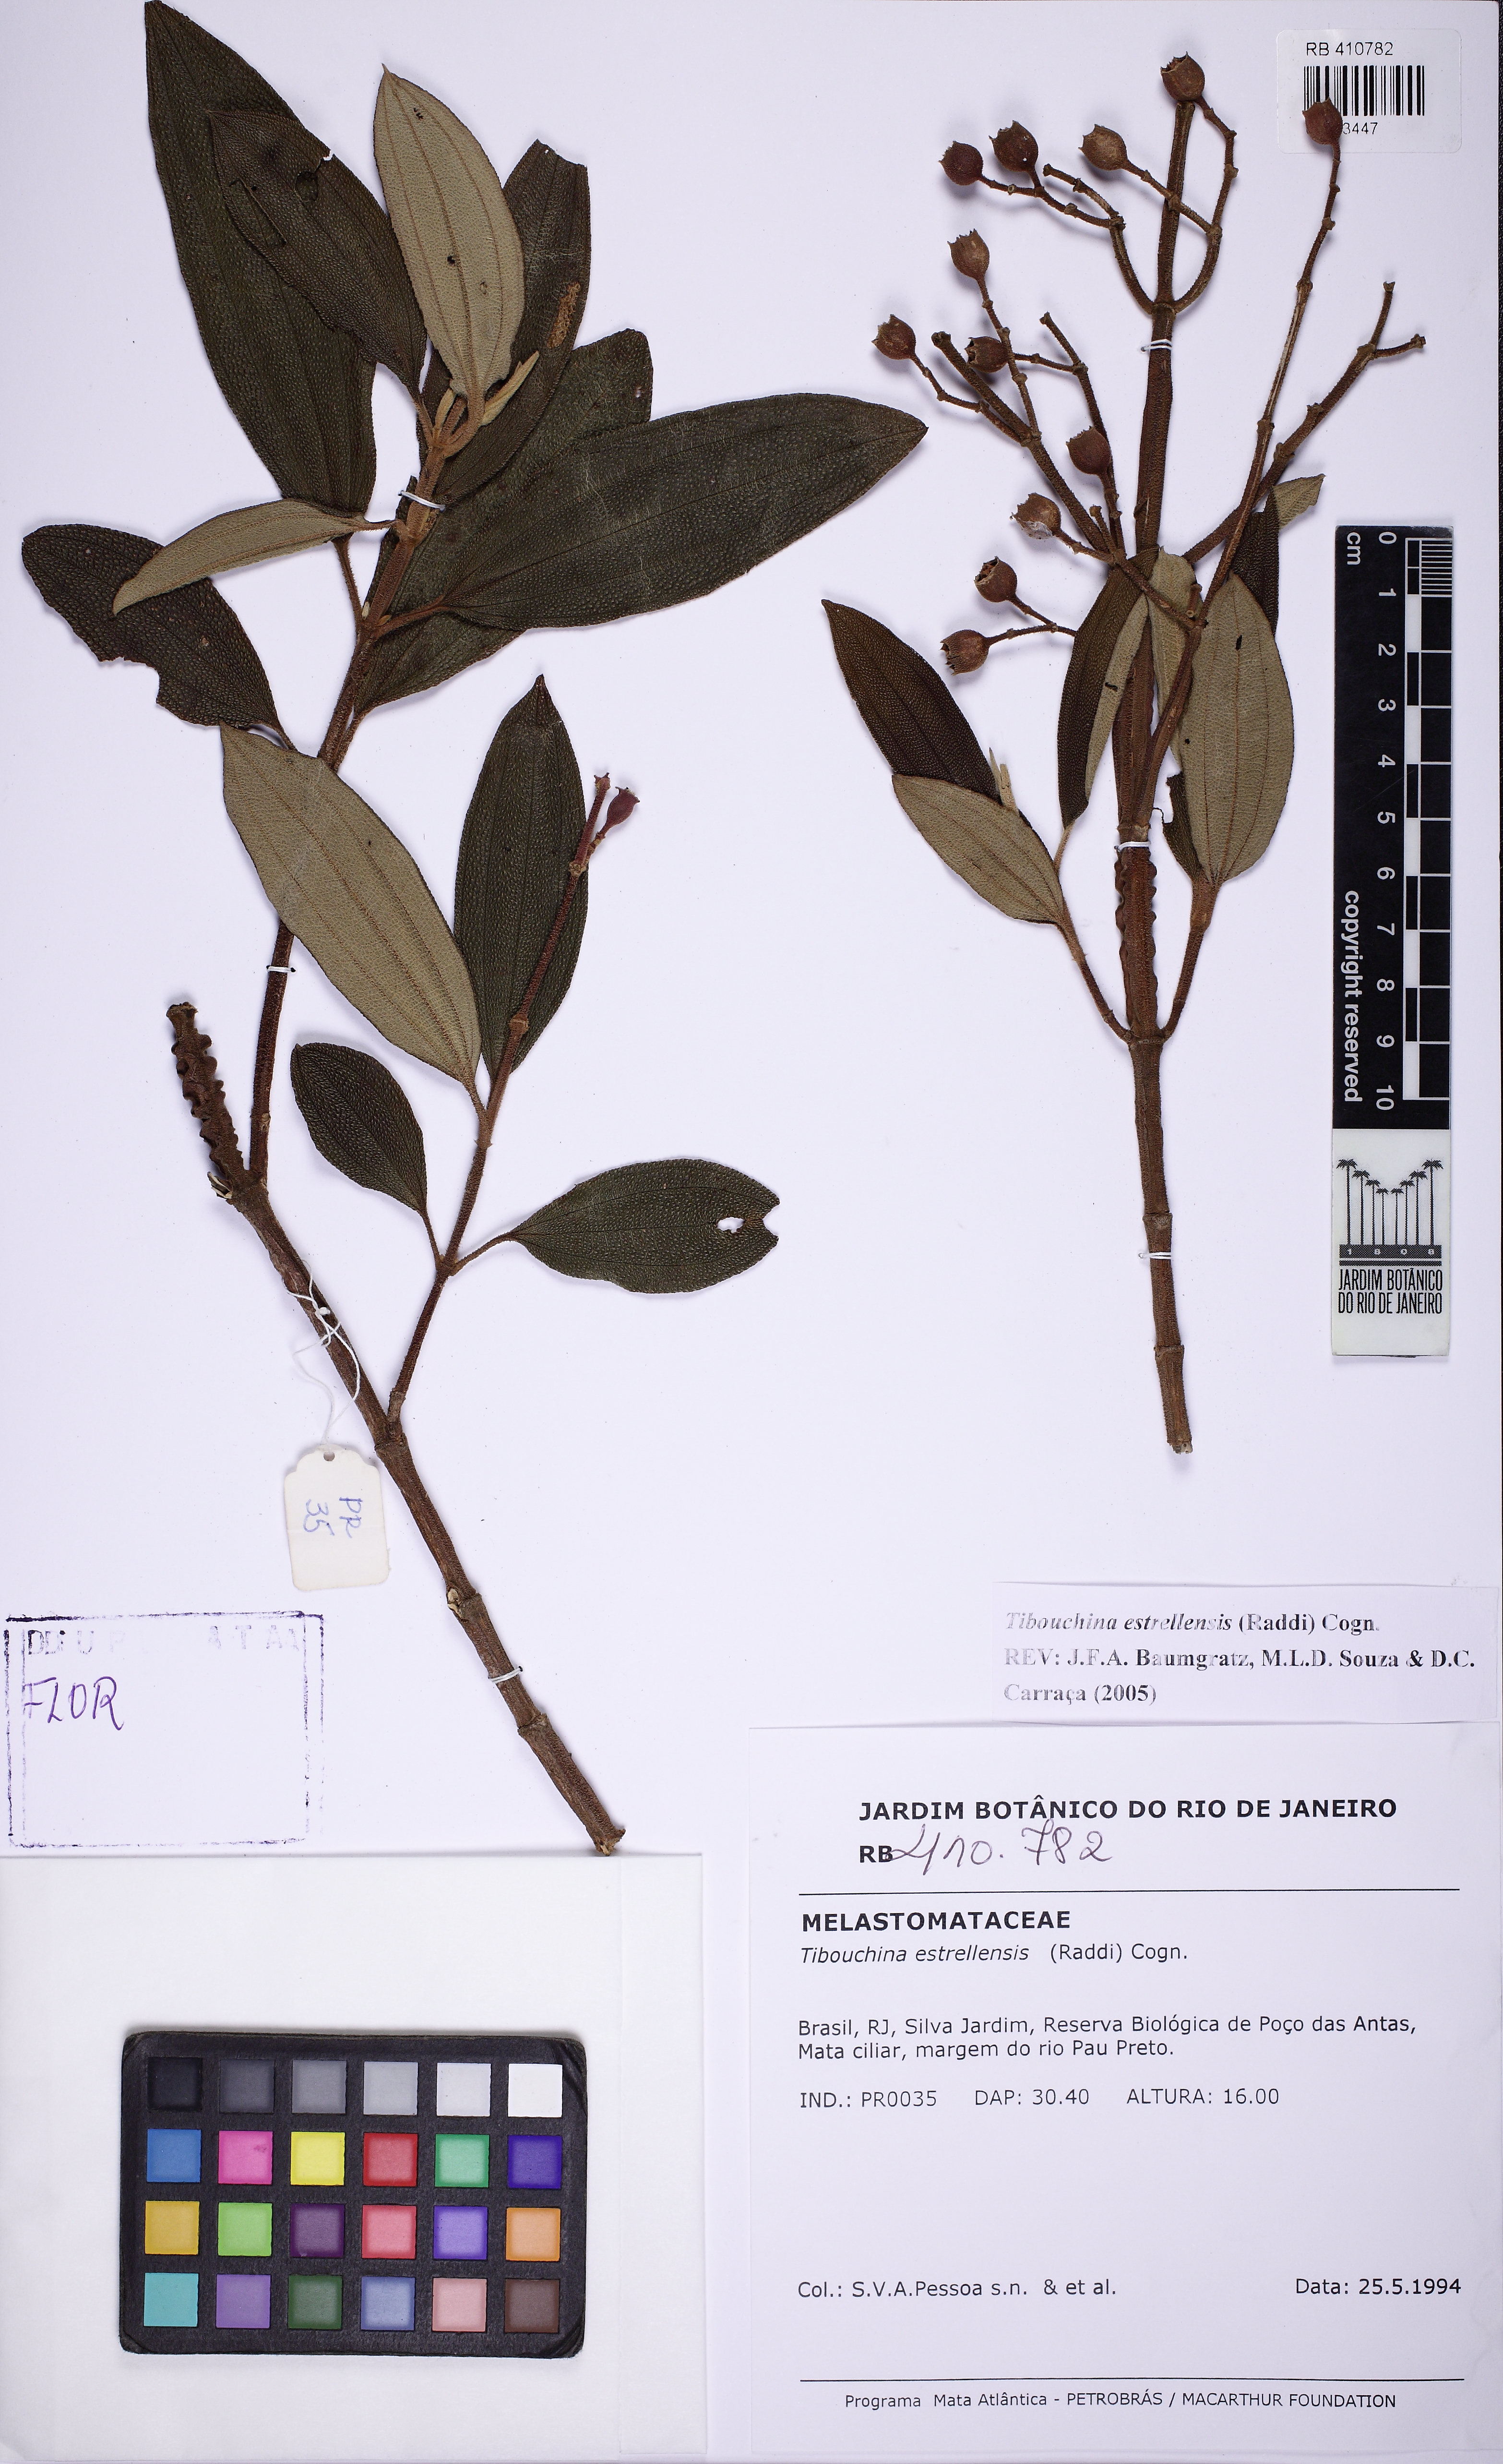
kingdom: Plantae
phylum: Tracheophyta
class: Magnoliopsida
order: Myrtales
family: Melastomataceae
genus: Pleroma
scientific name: Pleroma estrellense
